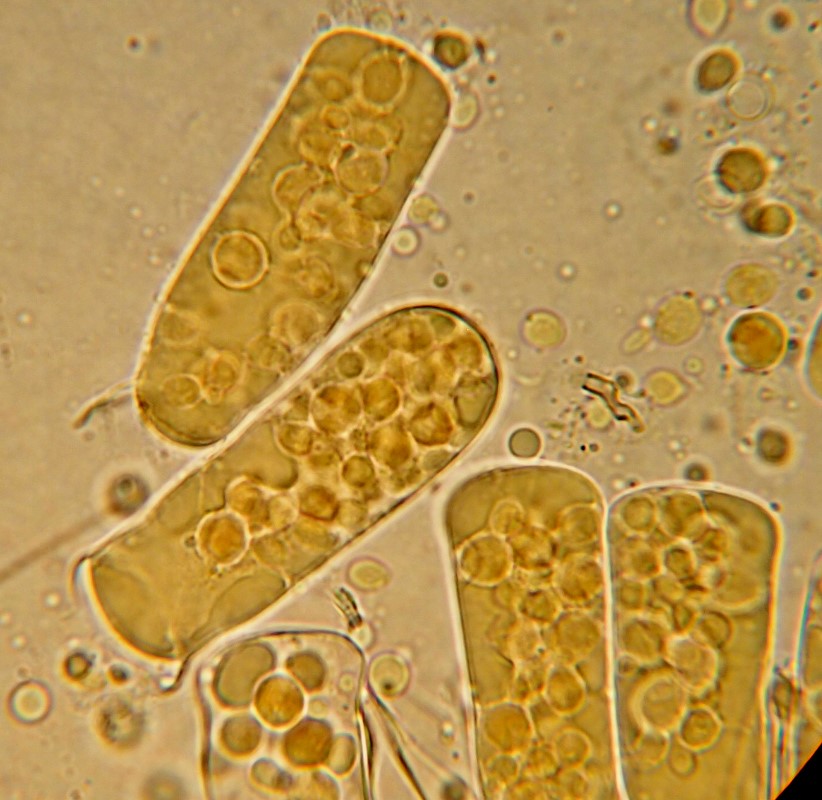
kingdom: Fungi
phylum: Ascomycota
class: Taphrinomycetes
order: Taphrinales
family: Taphrinaceae
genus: Taphrina
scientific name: Taphrina sadebeckii
